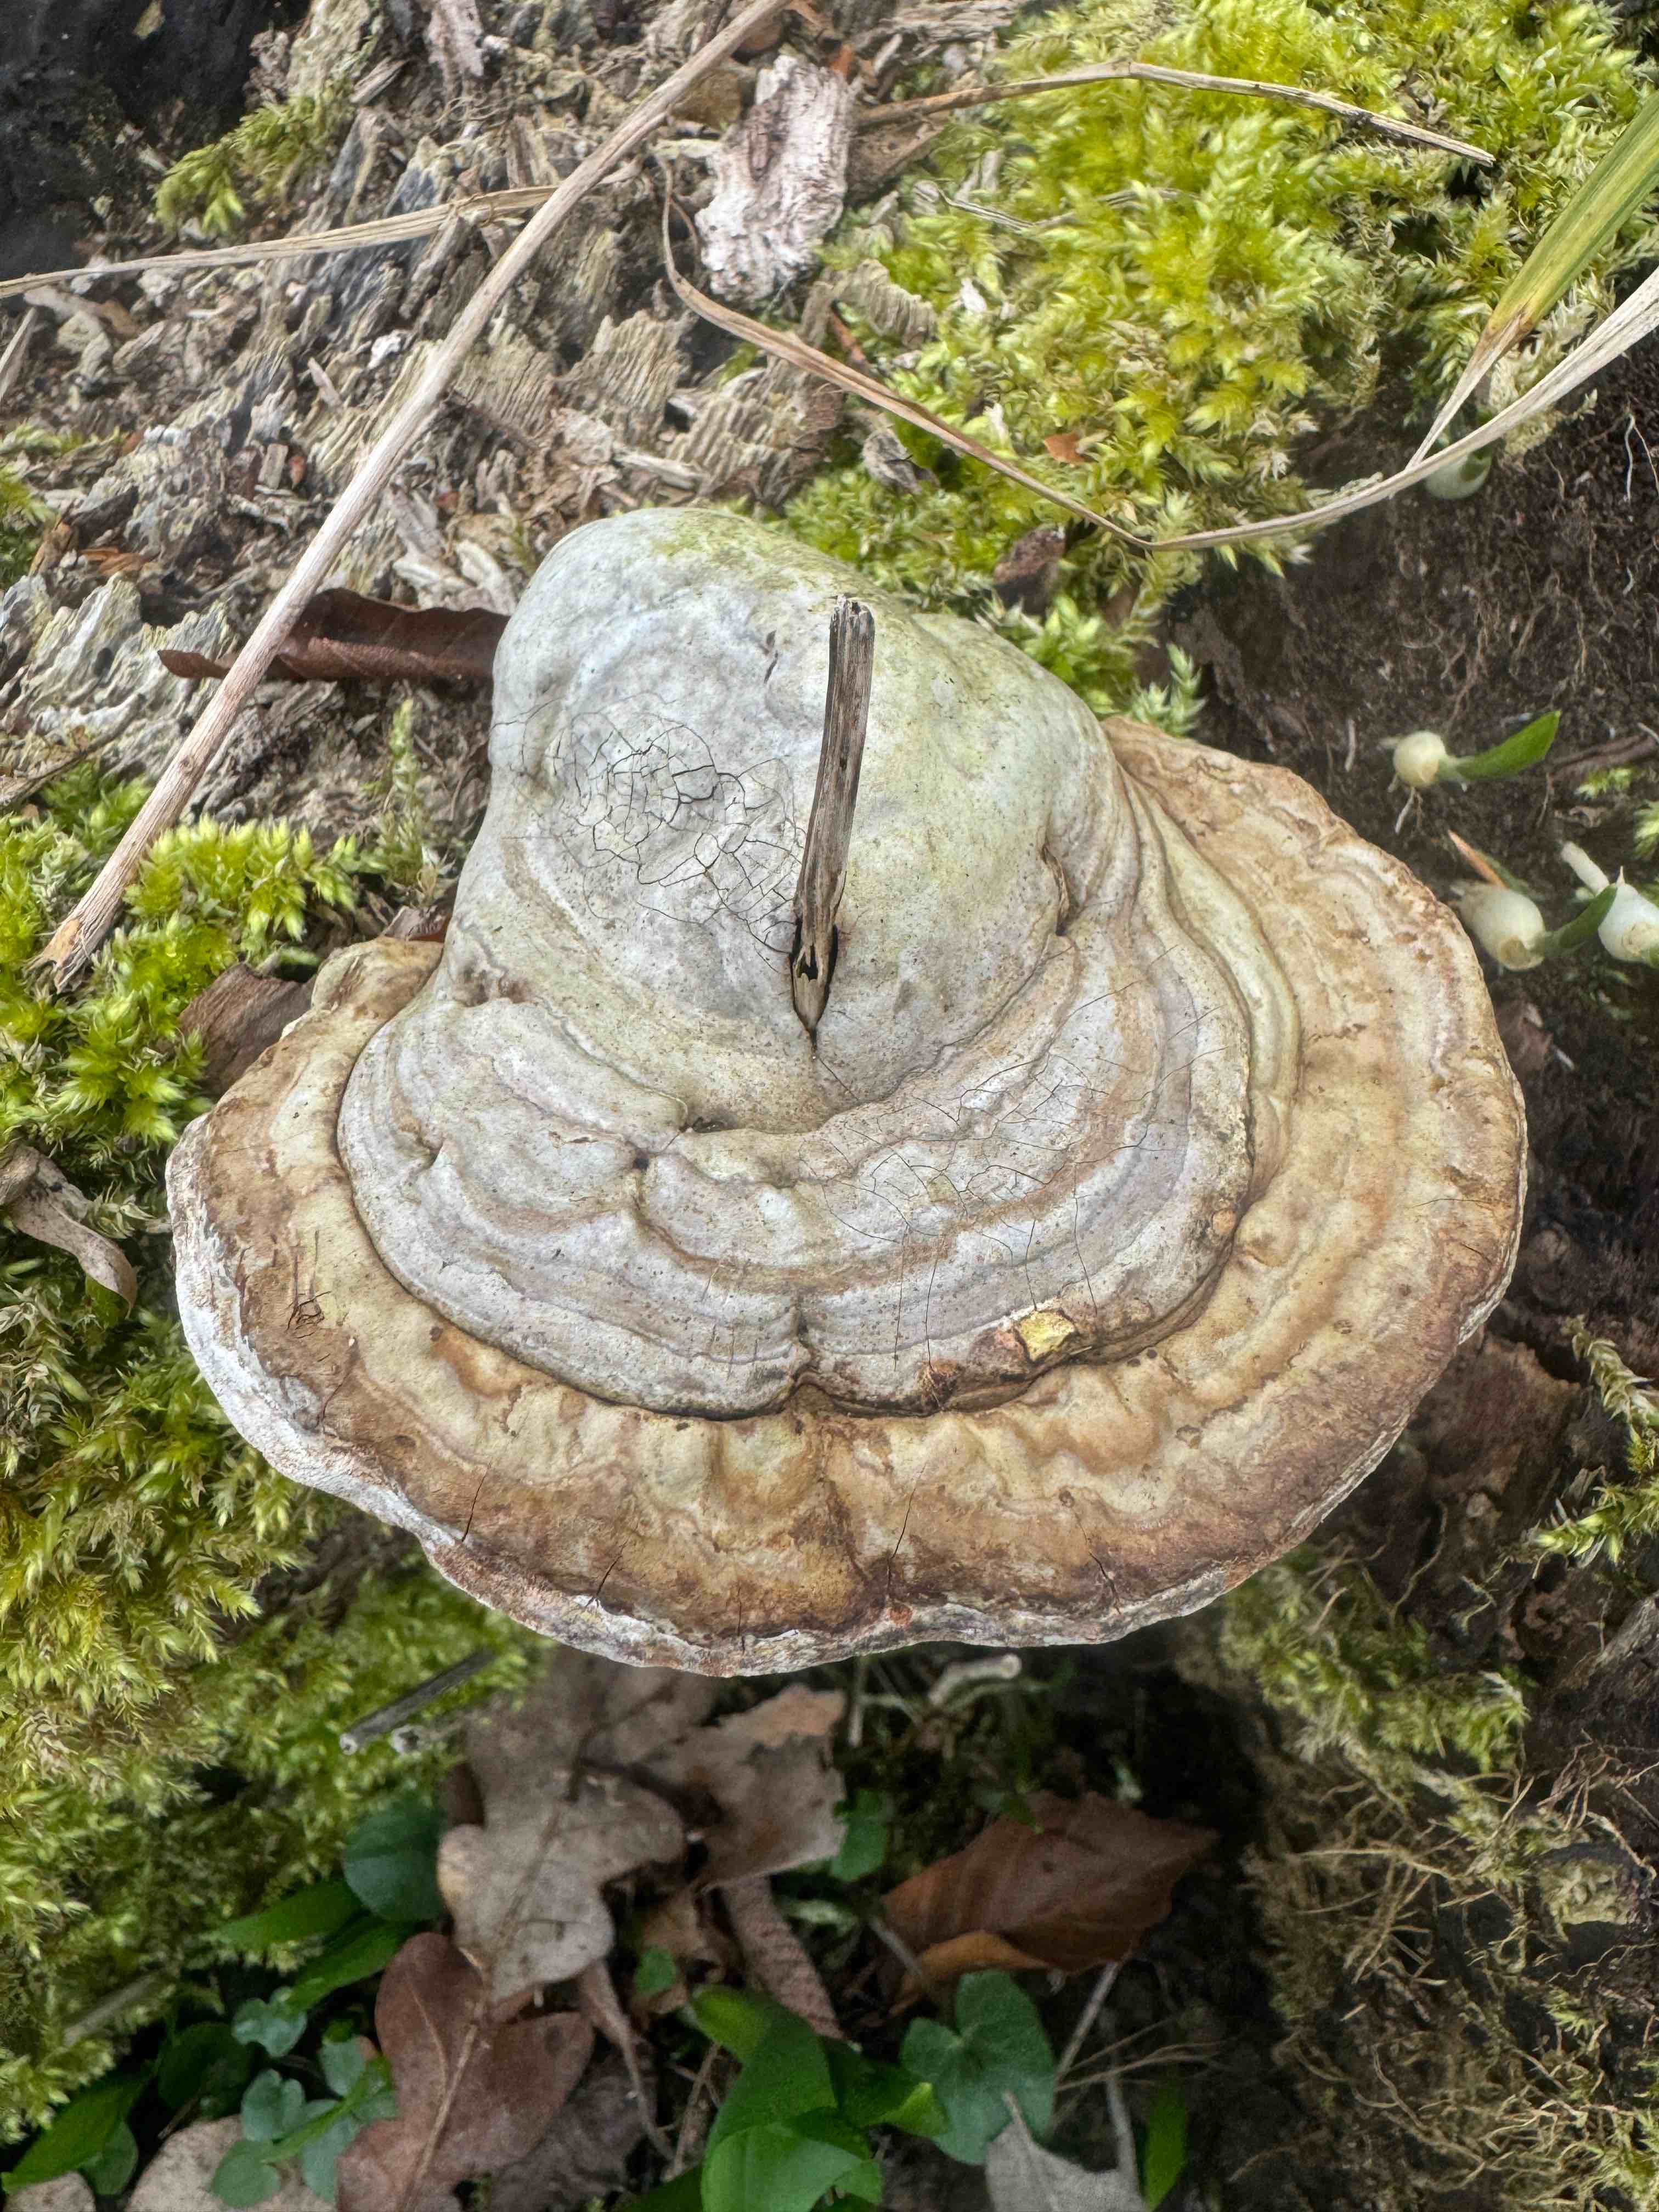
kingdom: Fungi
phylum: Basidiomycota
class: Agaricomycetes
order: Polyporales
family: Polyporaceae
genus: Fomes
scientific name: Fomes fomentarius
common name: tøndersvamp
